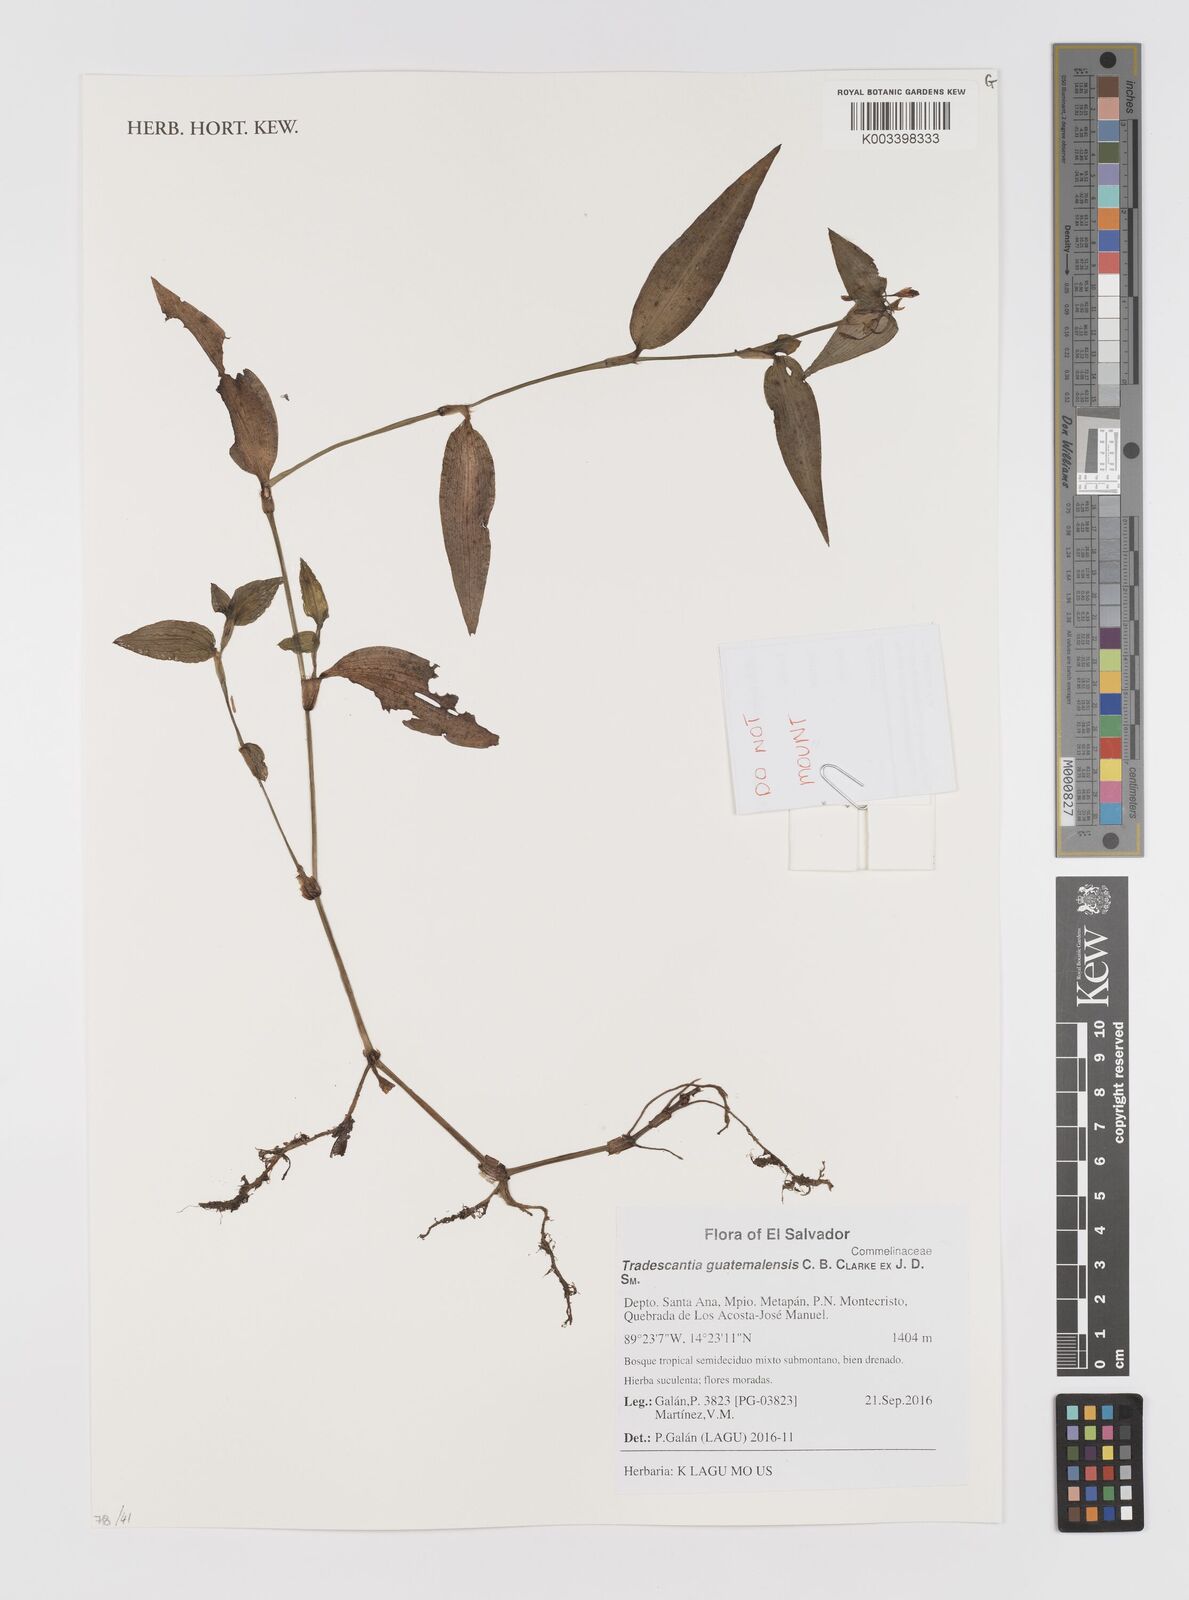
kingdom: Plantae
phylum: Tracheophyta
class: Liliopsida
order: Commelinales
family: Commelinaceae
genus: Elasis
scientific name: Elasis guatemalensis
